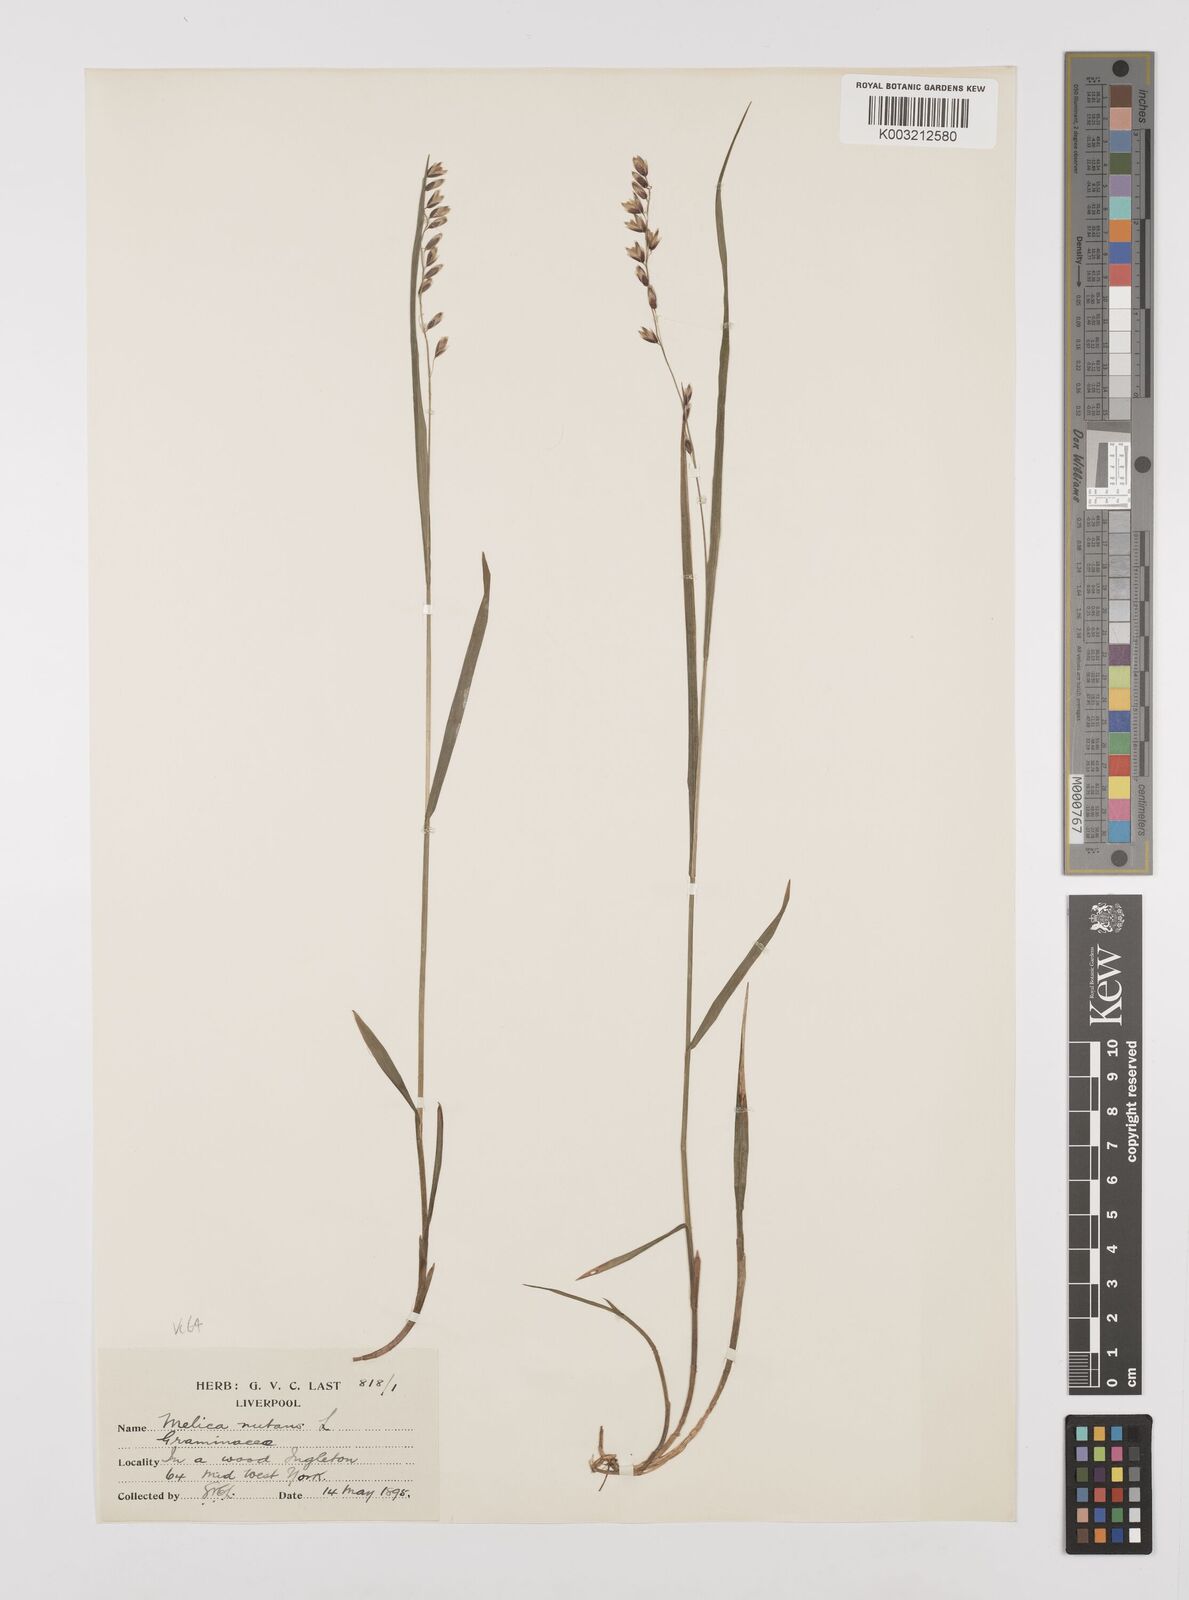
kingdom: Plantae
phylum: Tracheophyta
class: Liliopsida
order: Poales
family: Poaceae
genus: Melica
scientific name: Melica
